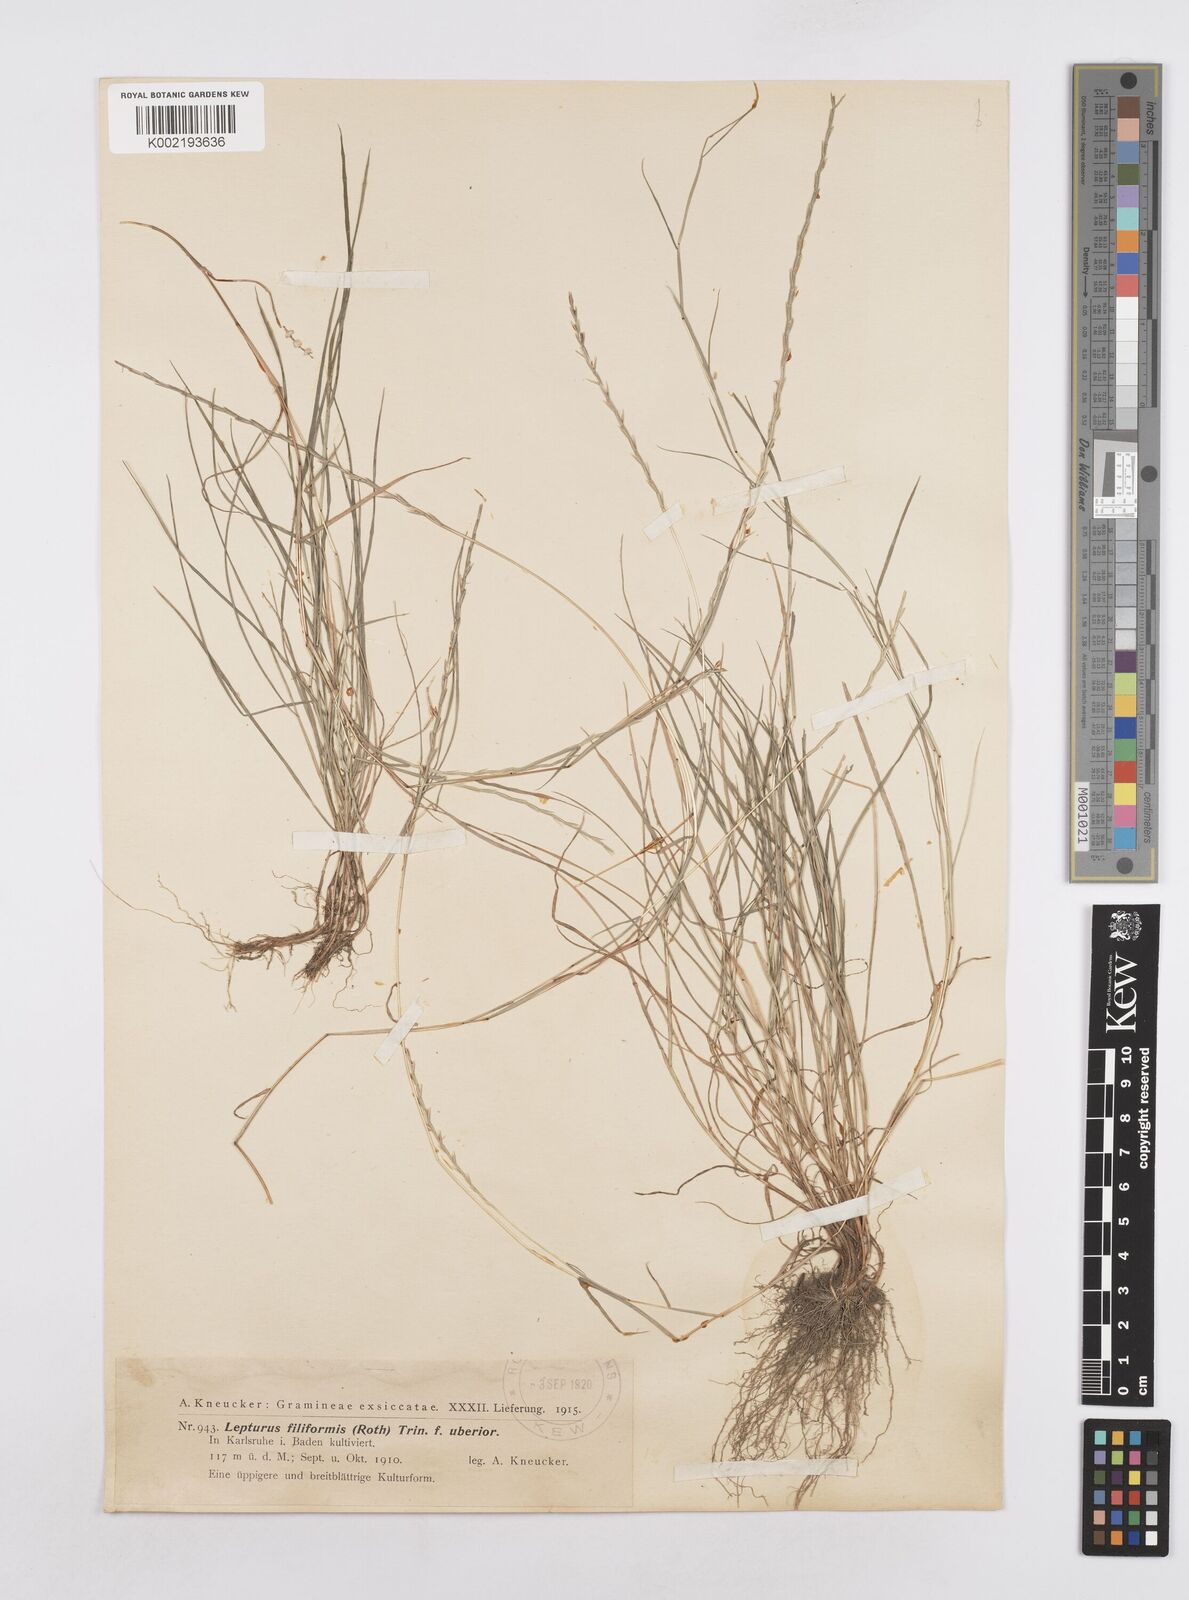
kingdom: Plantae
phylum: Tracheophyta
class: Liliopsida
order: Poales
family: Poaceae
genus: Parapholis
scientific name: Parapholis filiformis
